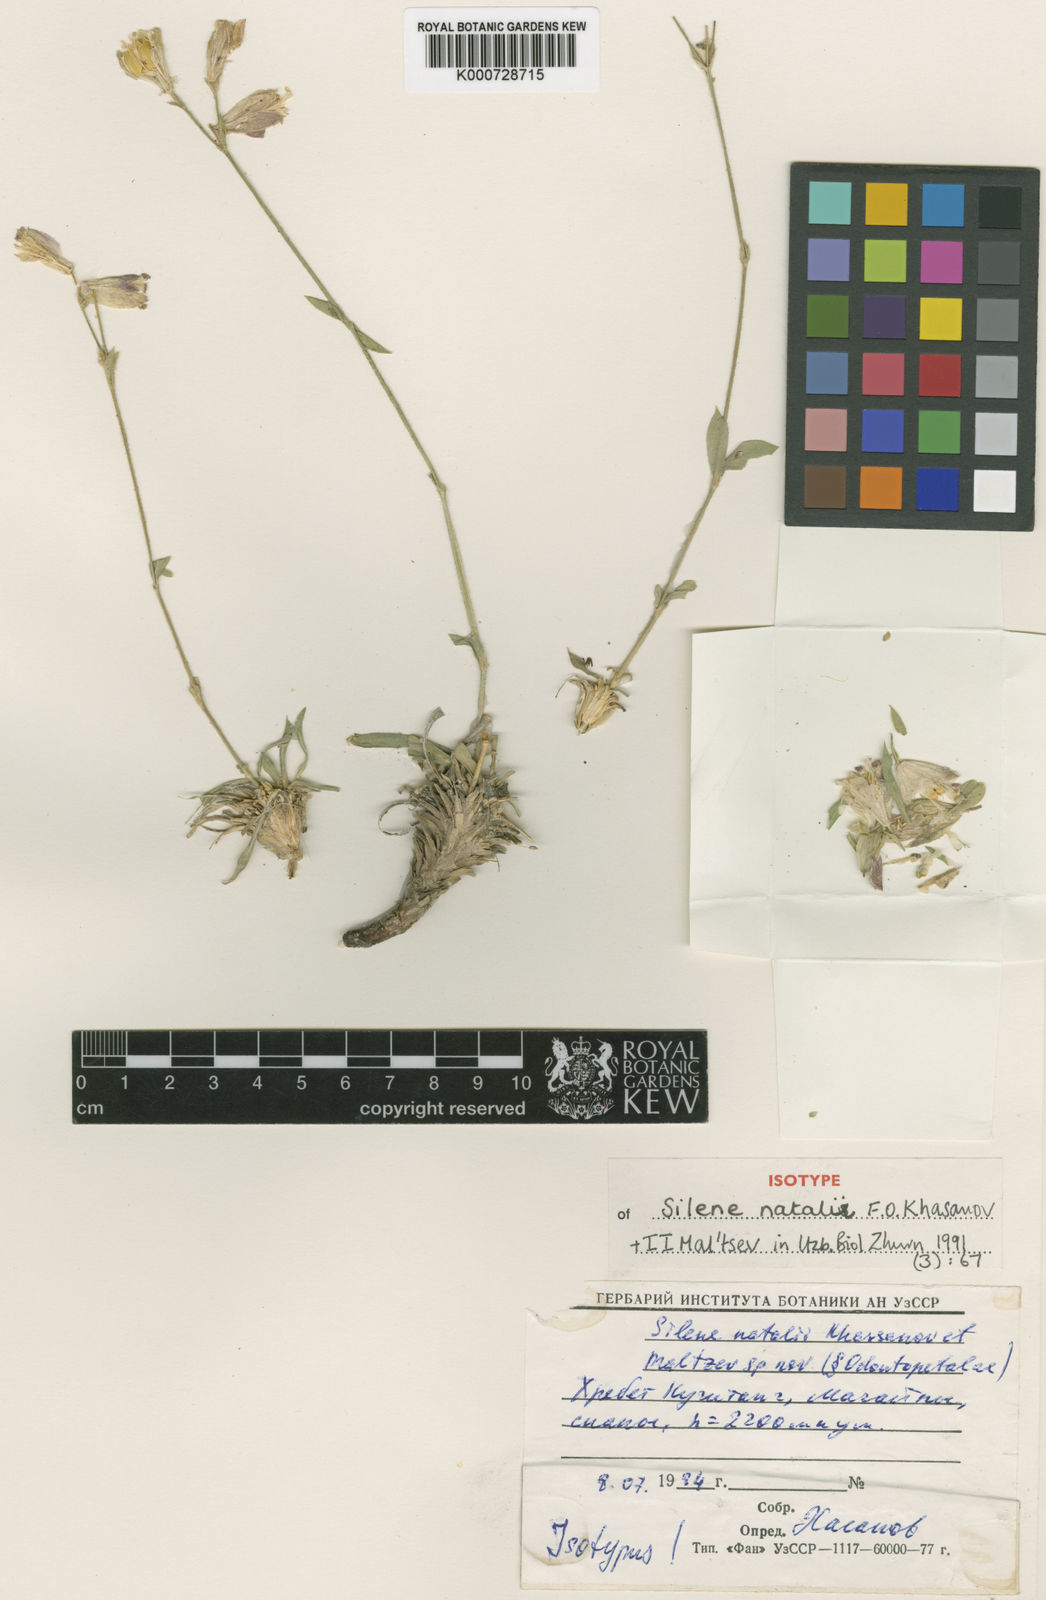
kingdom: Plantae
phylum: Tracheophyta
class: Magnoliopsida
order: Caryophyllales
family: Caryophyllaceae
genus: Silene
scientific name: Silene natalii
